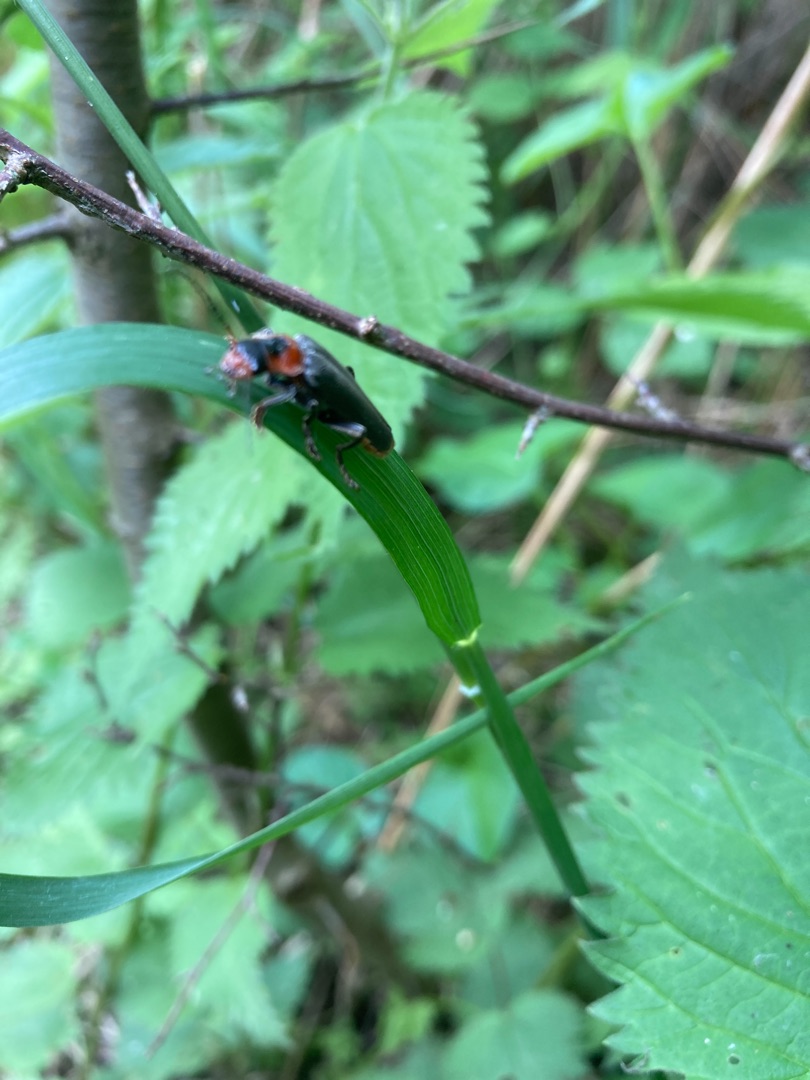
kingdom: Animalia
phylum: Arthropoda
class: Insecta
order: Coleoptera
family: Cantharidae
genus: Cantharis
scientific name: Cantharis fusca
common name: Stor blødvinge
